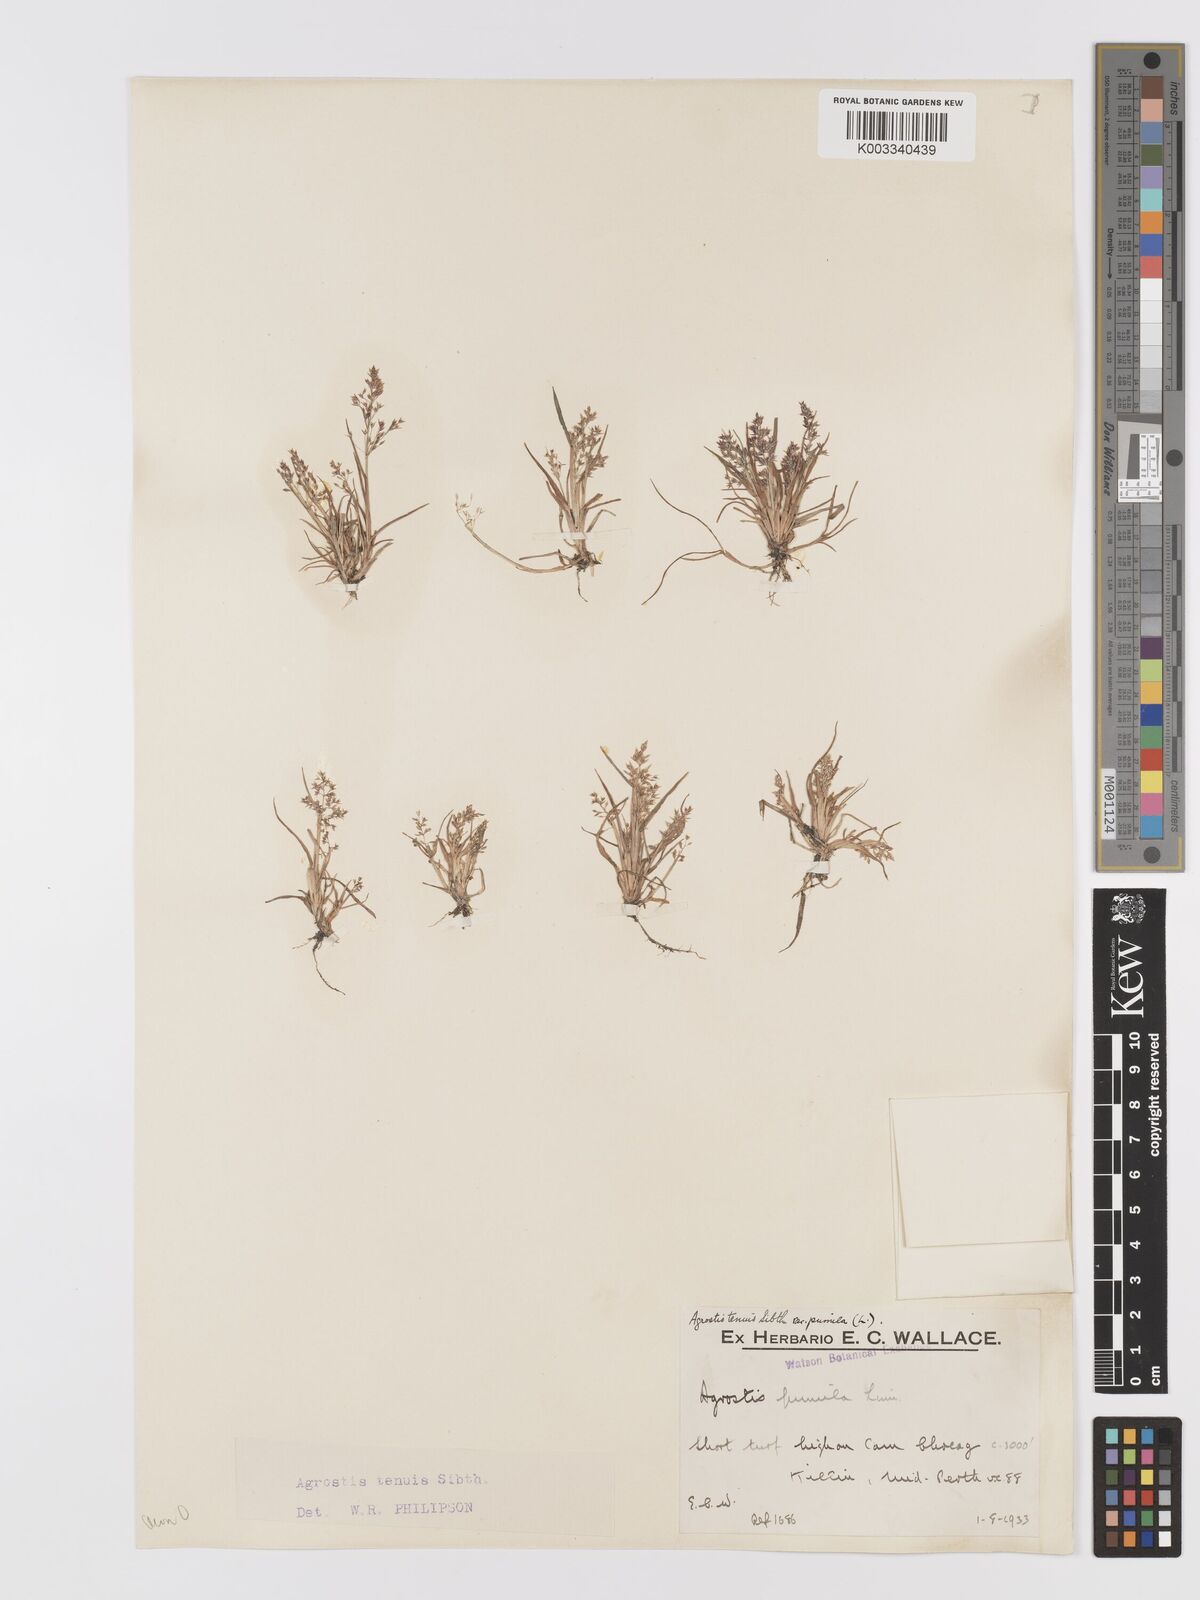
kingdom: Plantae
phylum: Tracheophyta
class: Liliopsida
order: Poales
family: Poaceae
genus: Agrostis
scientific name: Agrostis capillaris
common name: Colonial bentgrass
